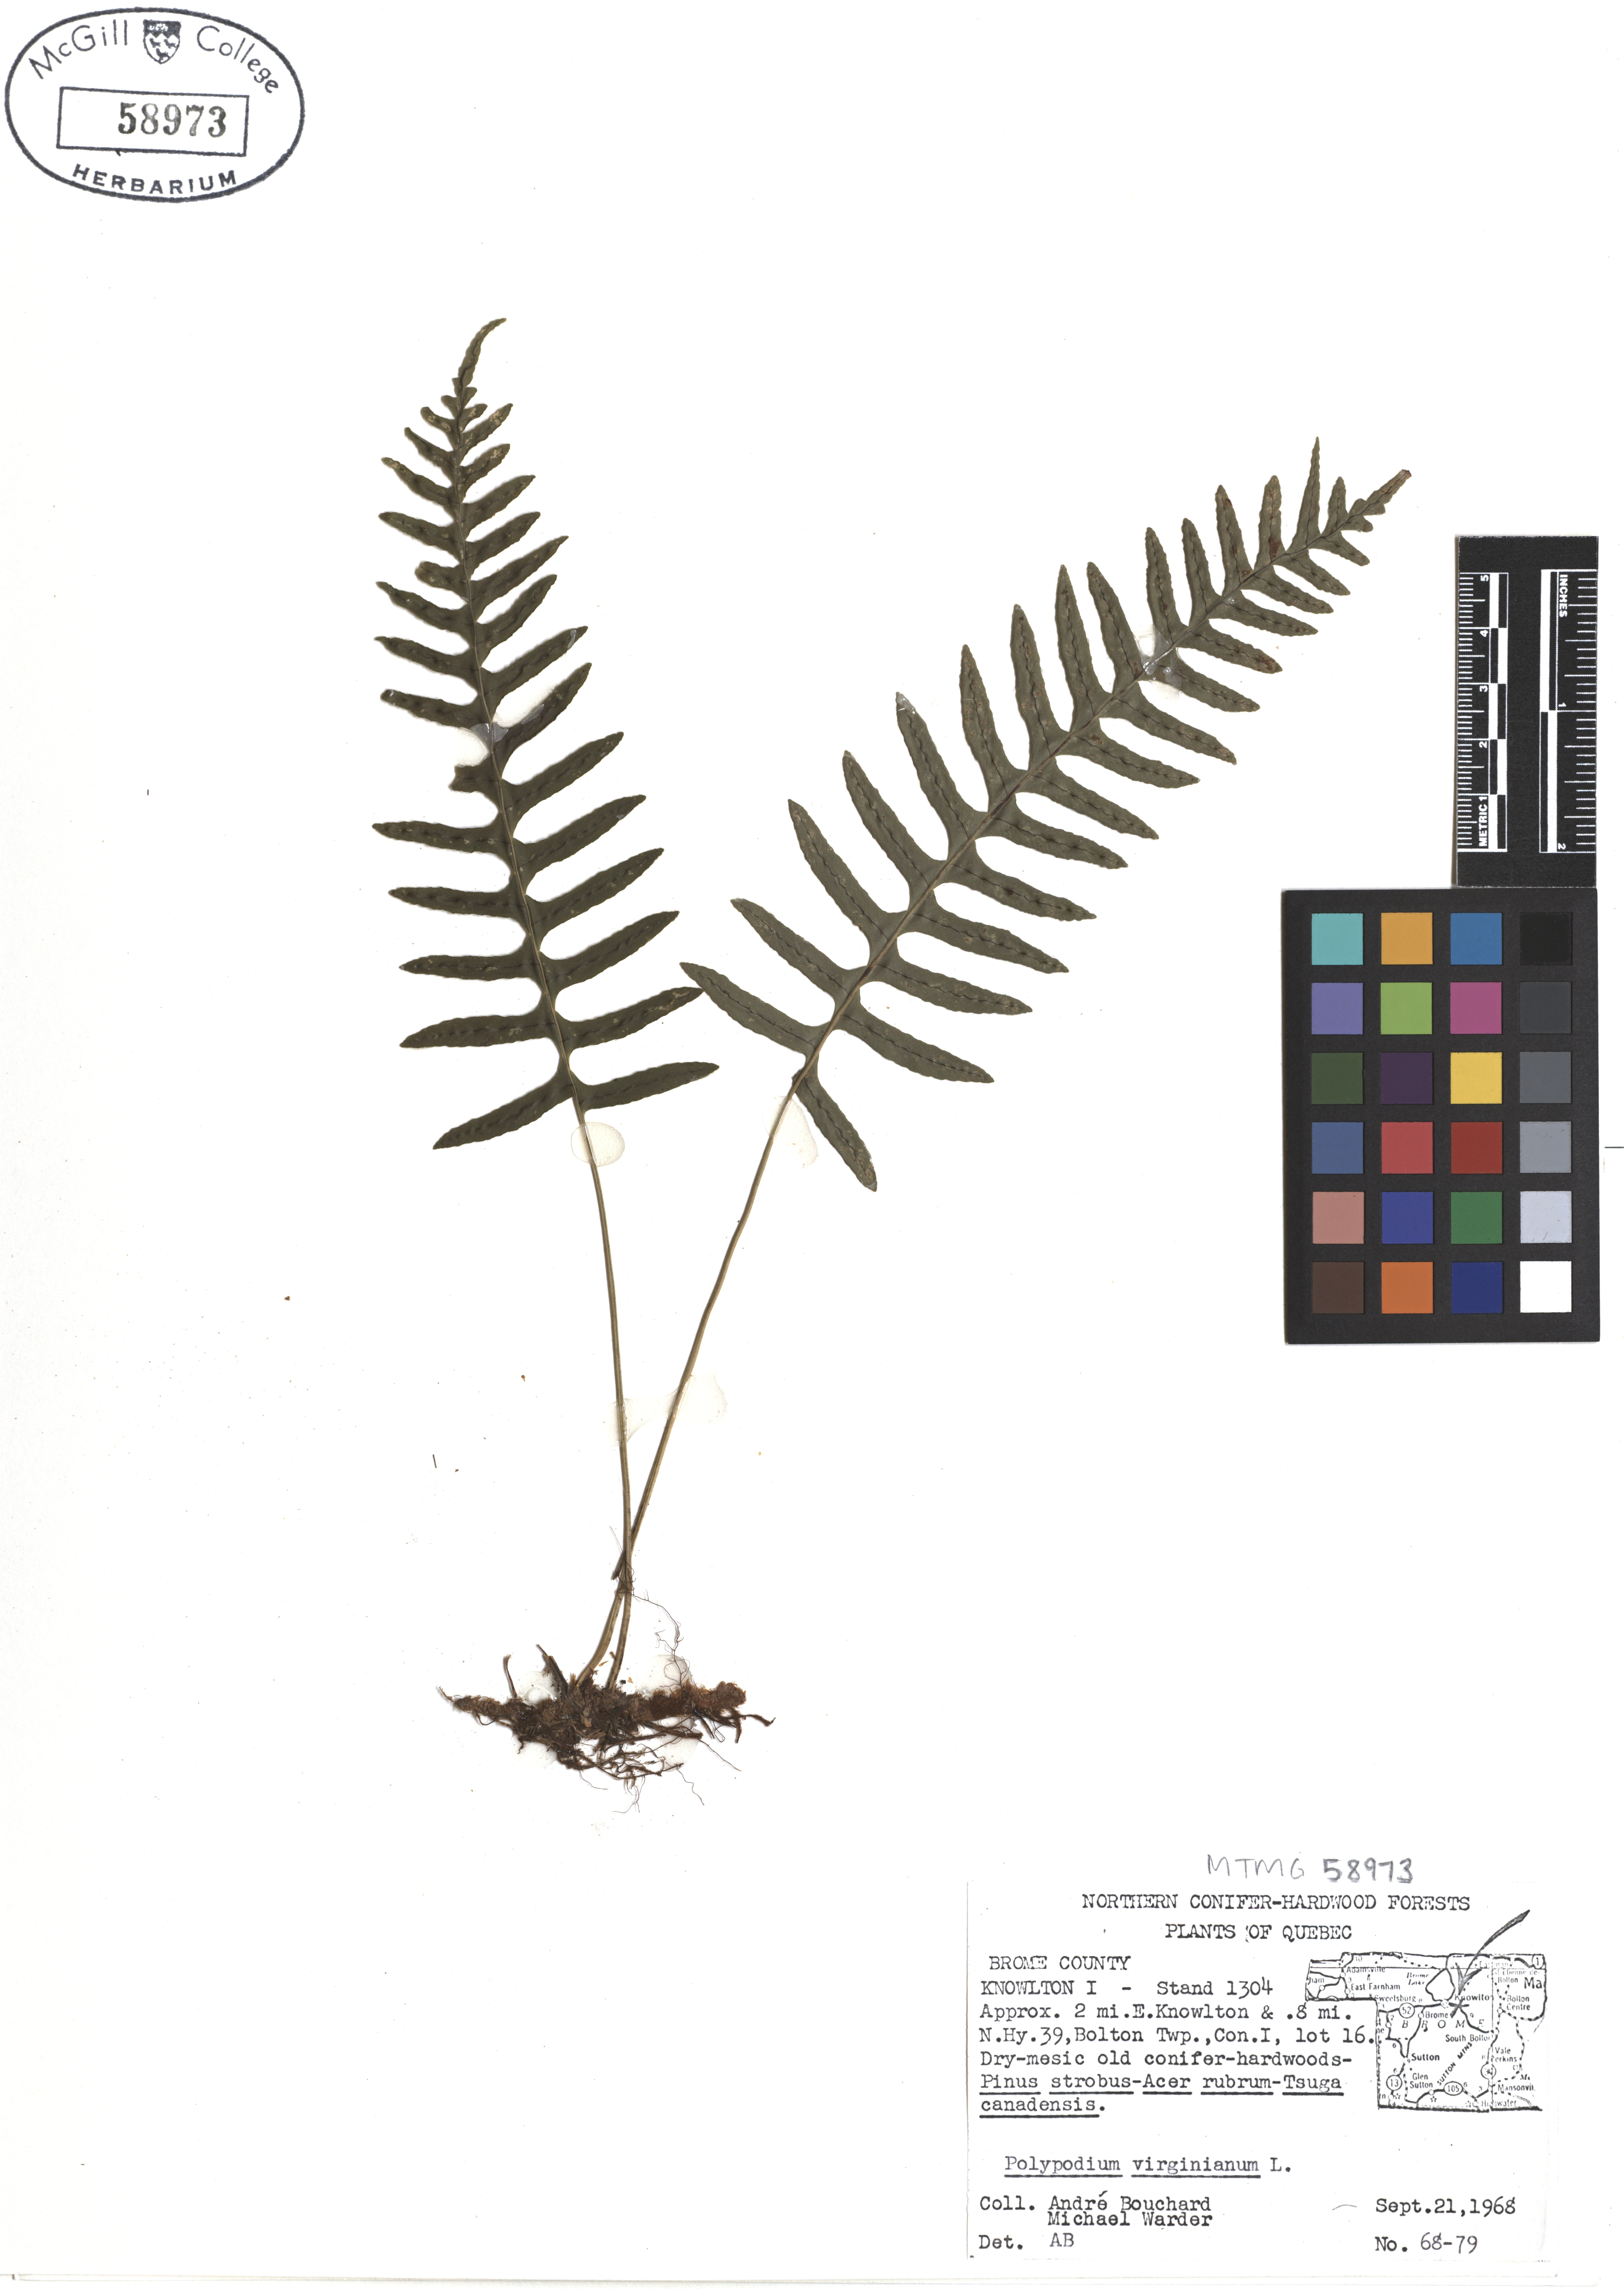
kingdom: Plantae
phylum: Tracheophyta
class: Polypodiopsida
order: Polypodiales
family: Polypodiaceae
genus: Polypodium
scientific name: Polypodium virginianum
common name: American wall fern
